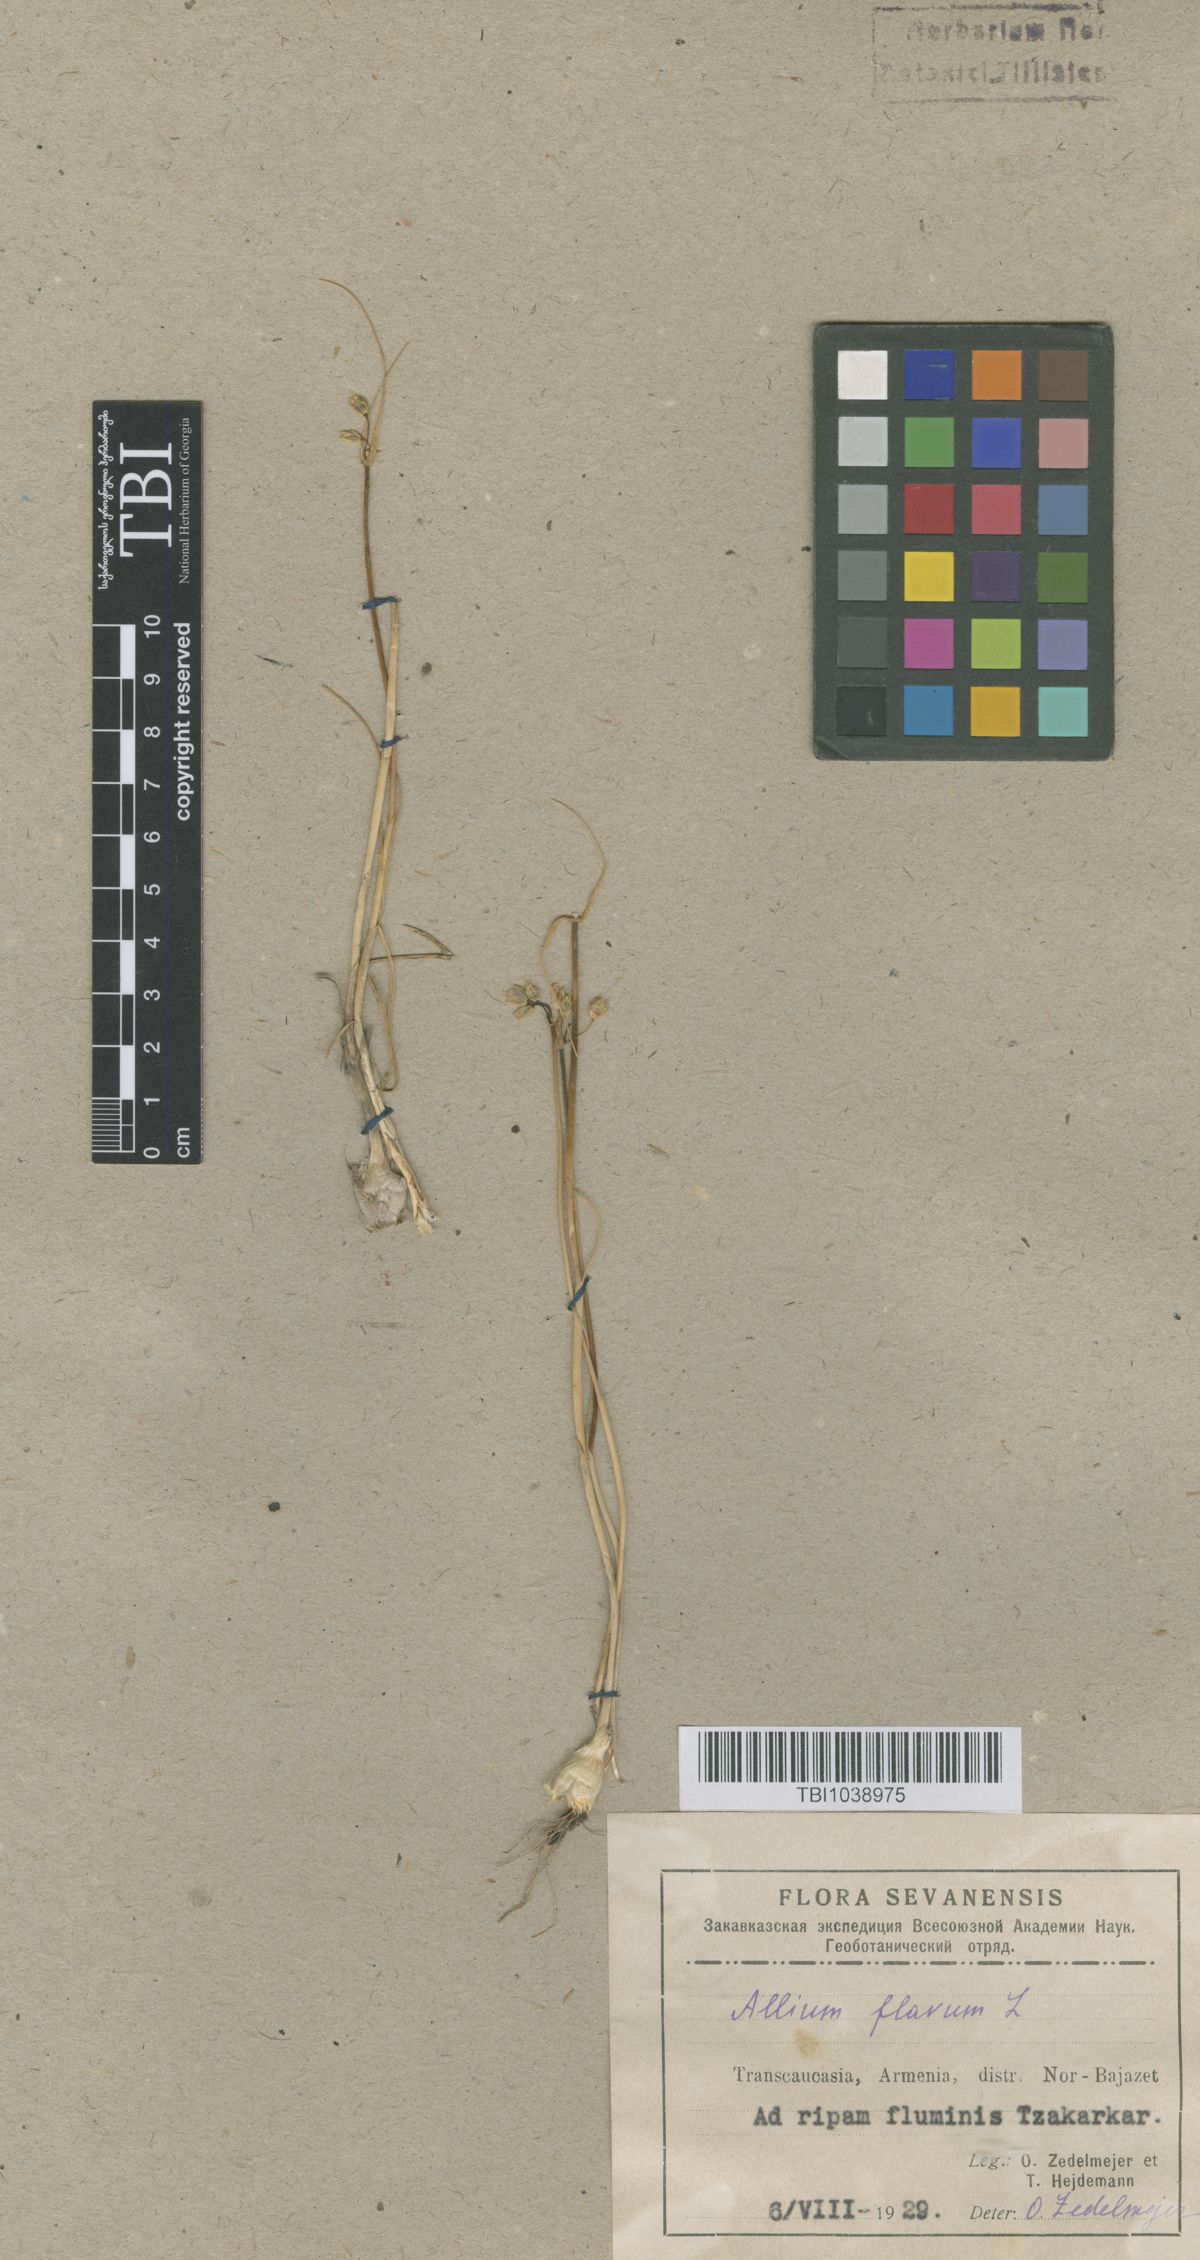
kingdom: Plantae
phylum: Tracheophyta
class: Liliopsida
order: Asparagales
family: Amaryllidaceae
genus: Allium
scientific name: Allium pseudoflavum
